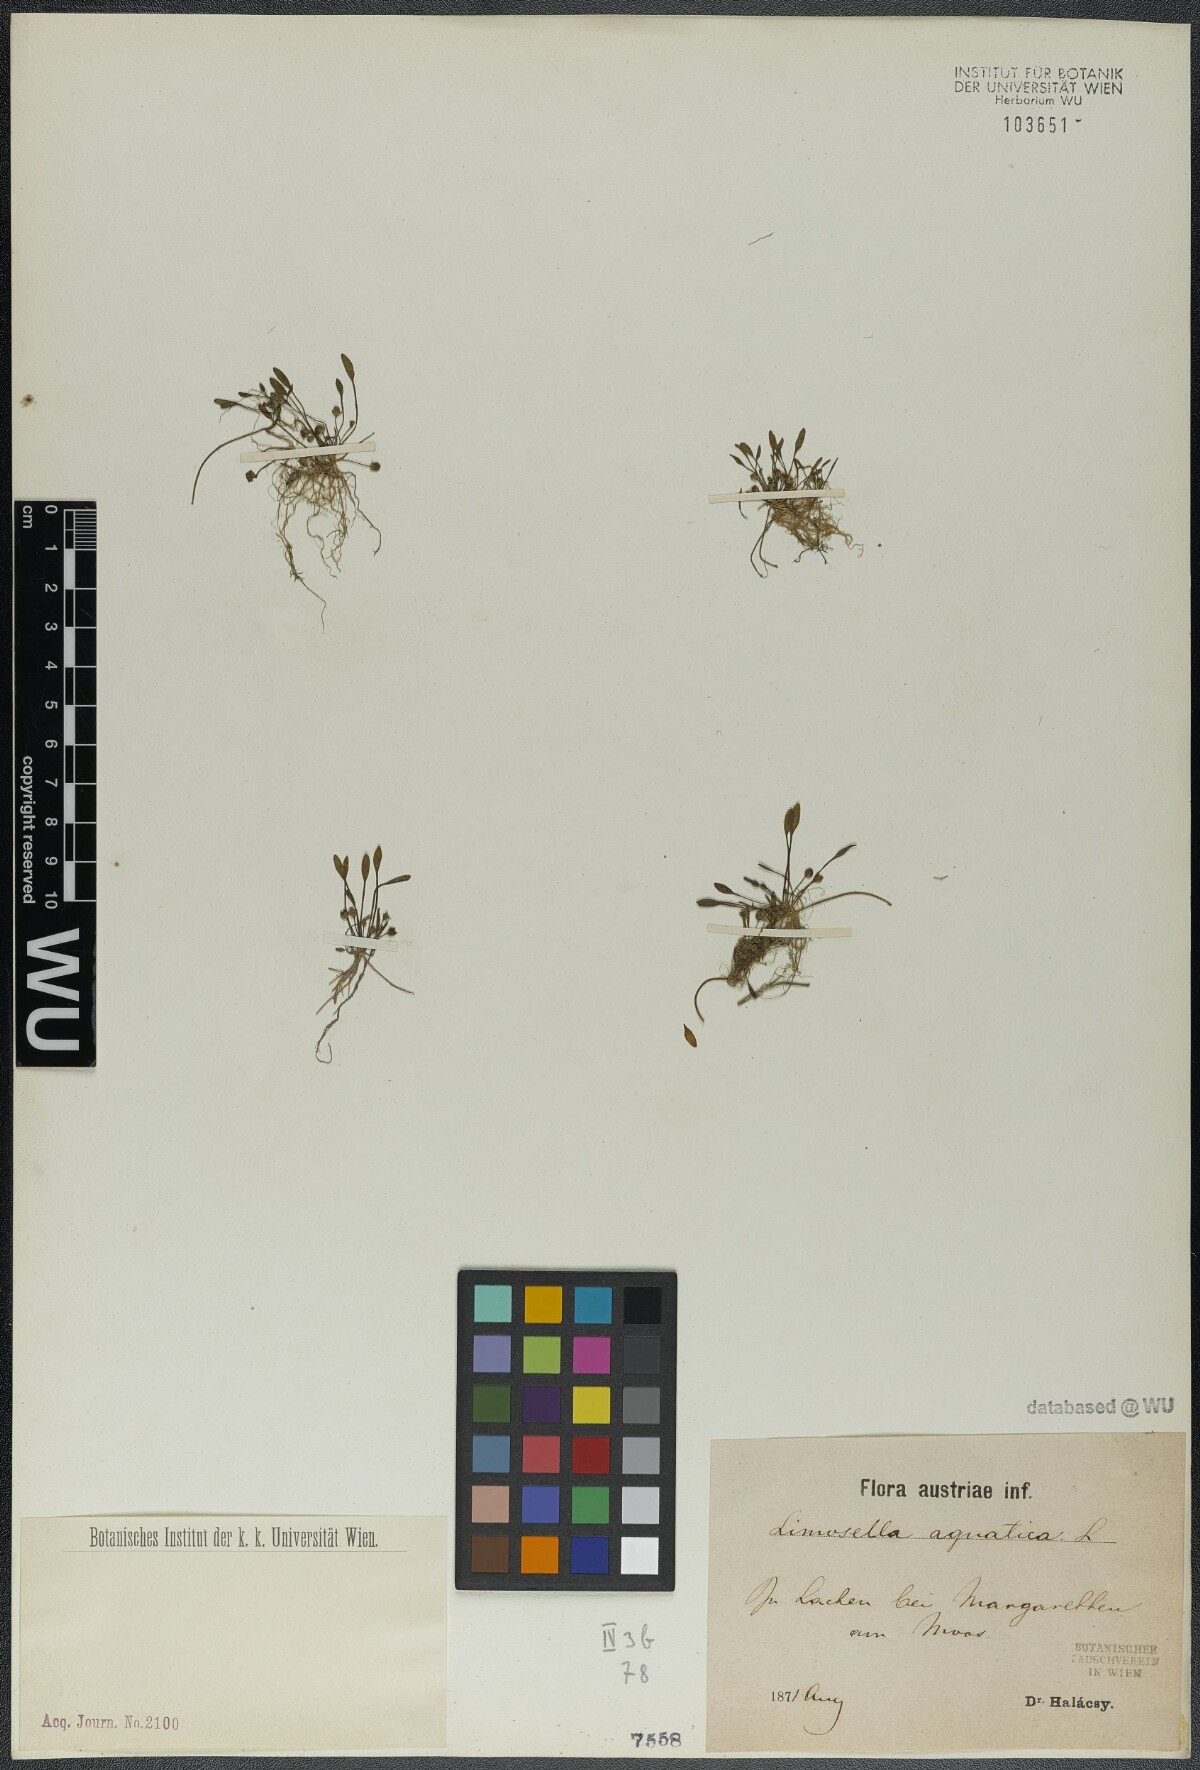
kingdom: Plantae
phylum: Tracheophyta
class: Magnoliopsida
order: Lamiales
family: Scrophulariaceae
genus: Limosella
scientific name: Limosella aquatica
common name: Mudwort
